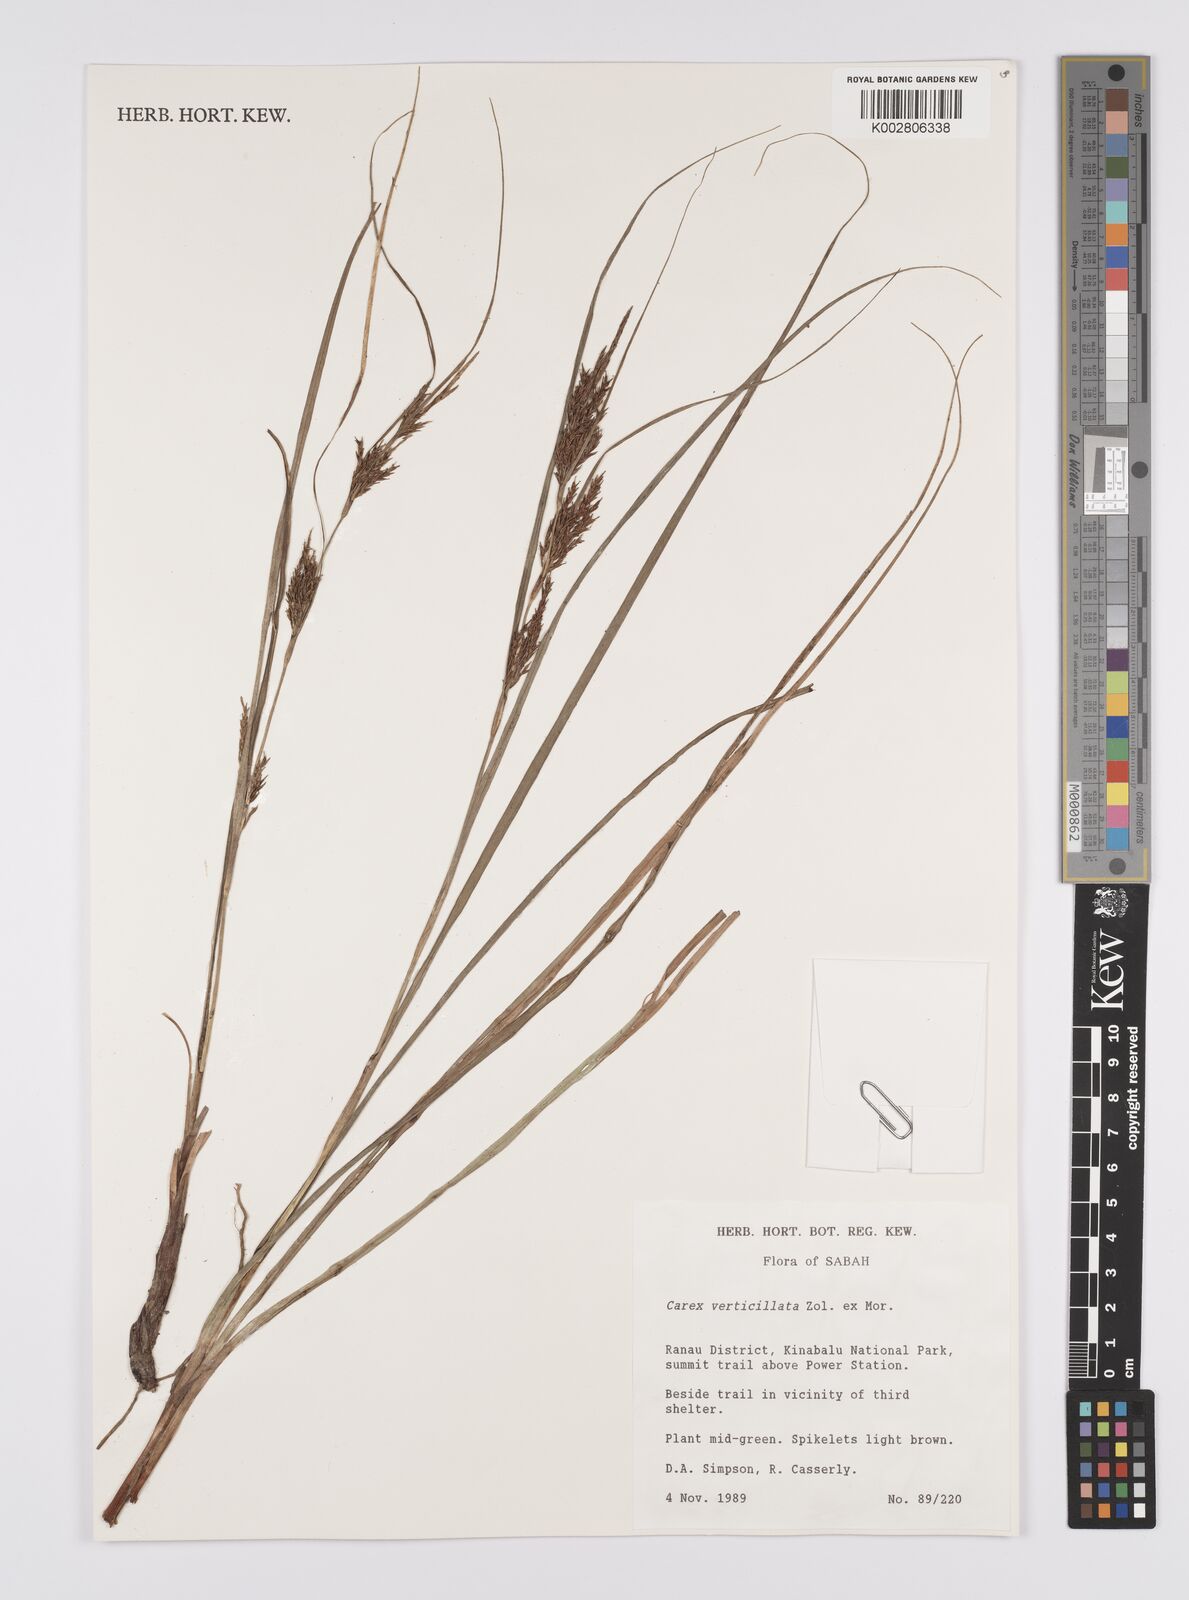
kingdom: Plantae
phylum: Tracheophyta
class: Liliopsida
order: Poales
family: Cyperaceae
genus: Carex
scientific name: Carex verticillata
